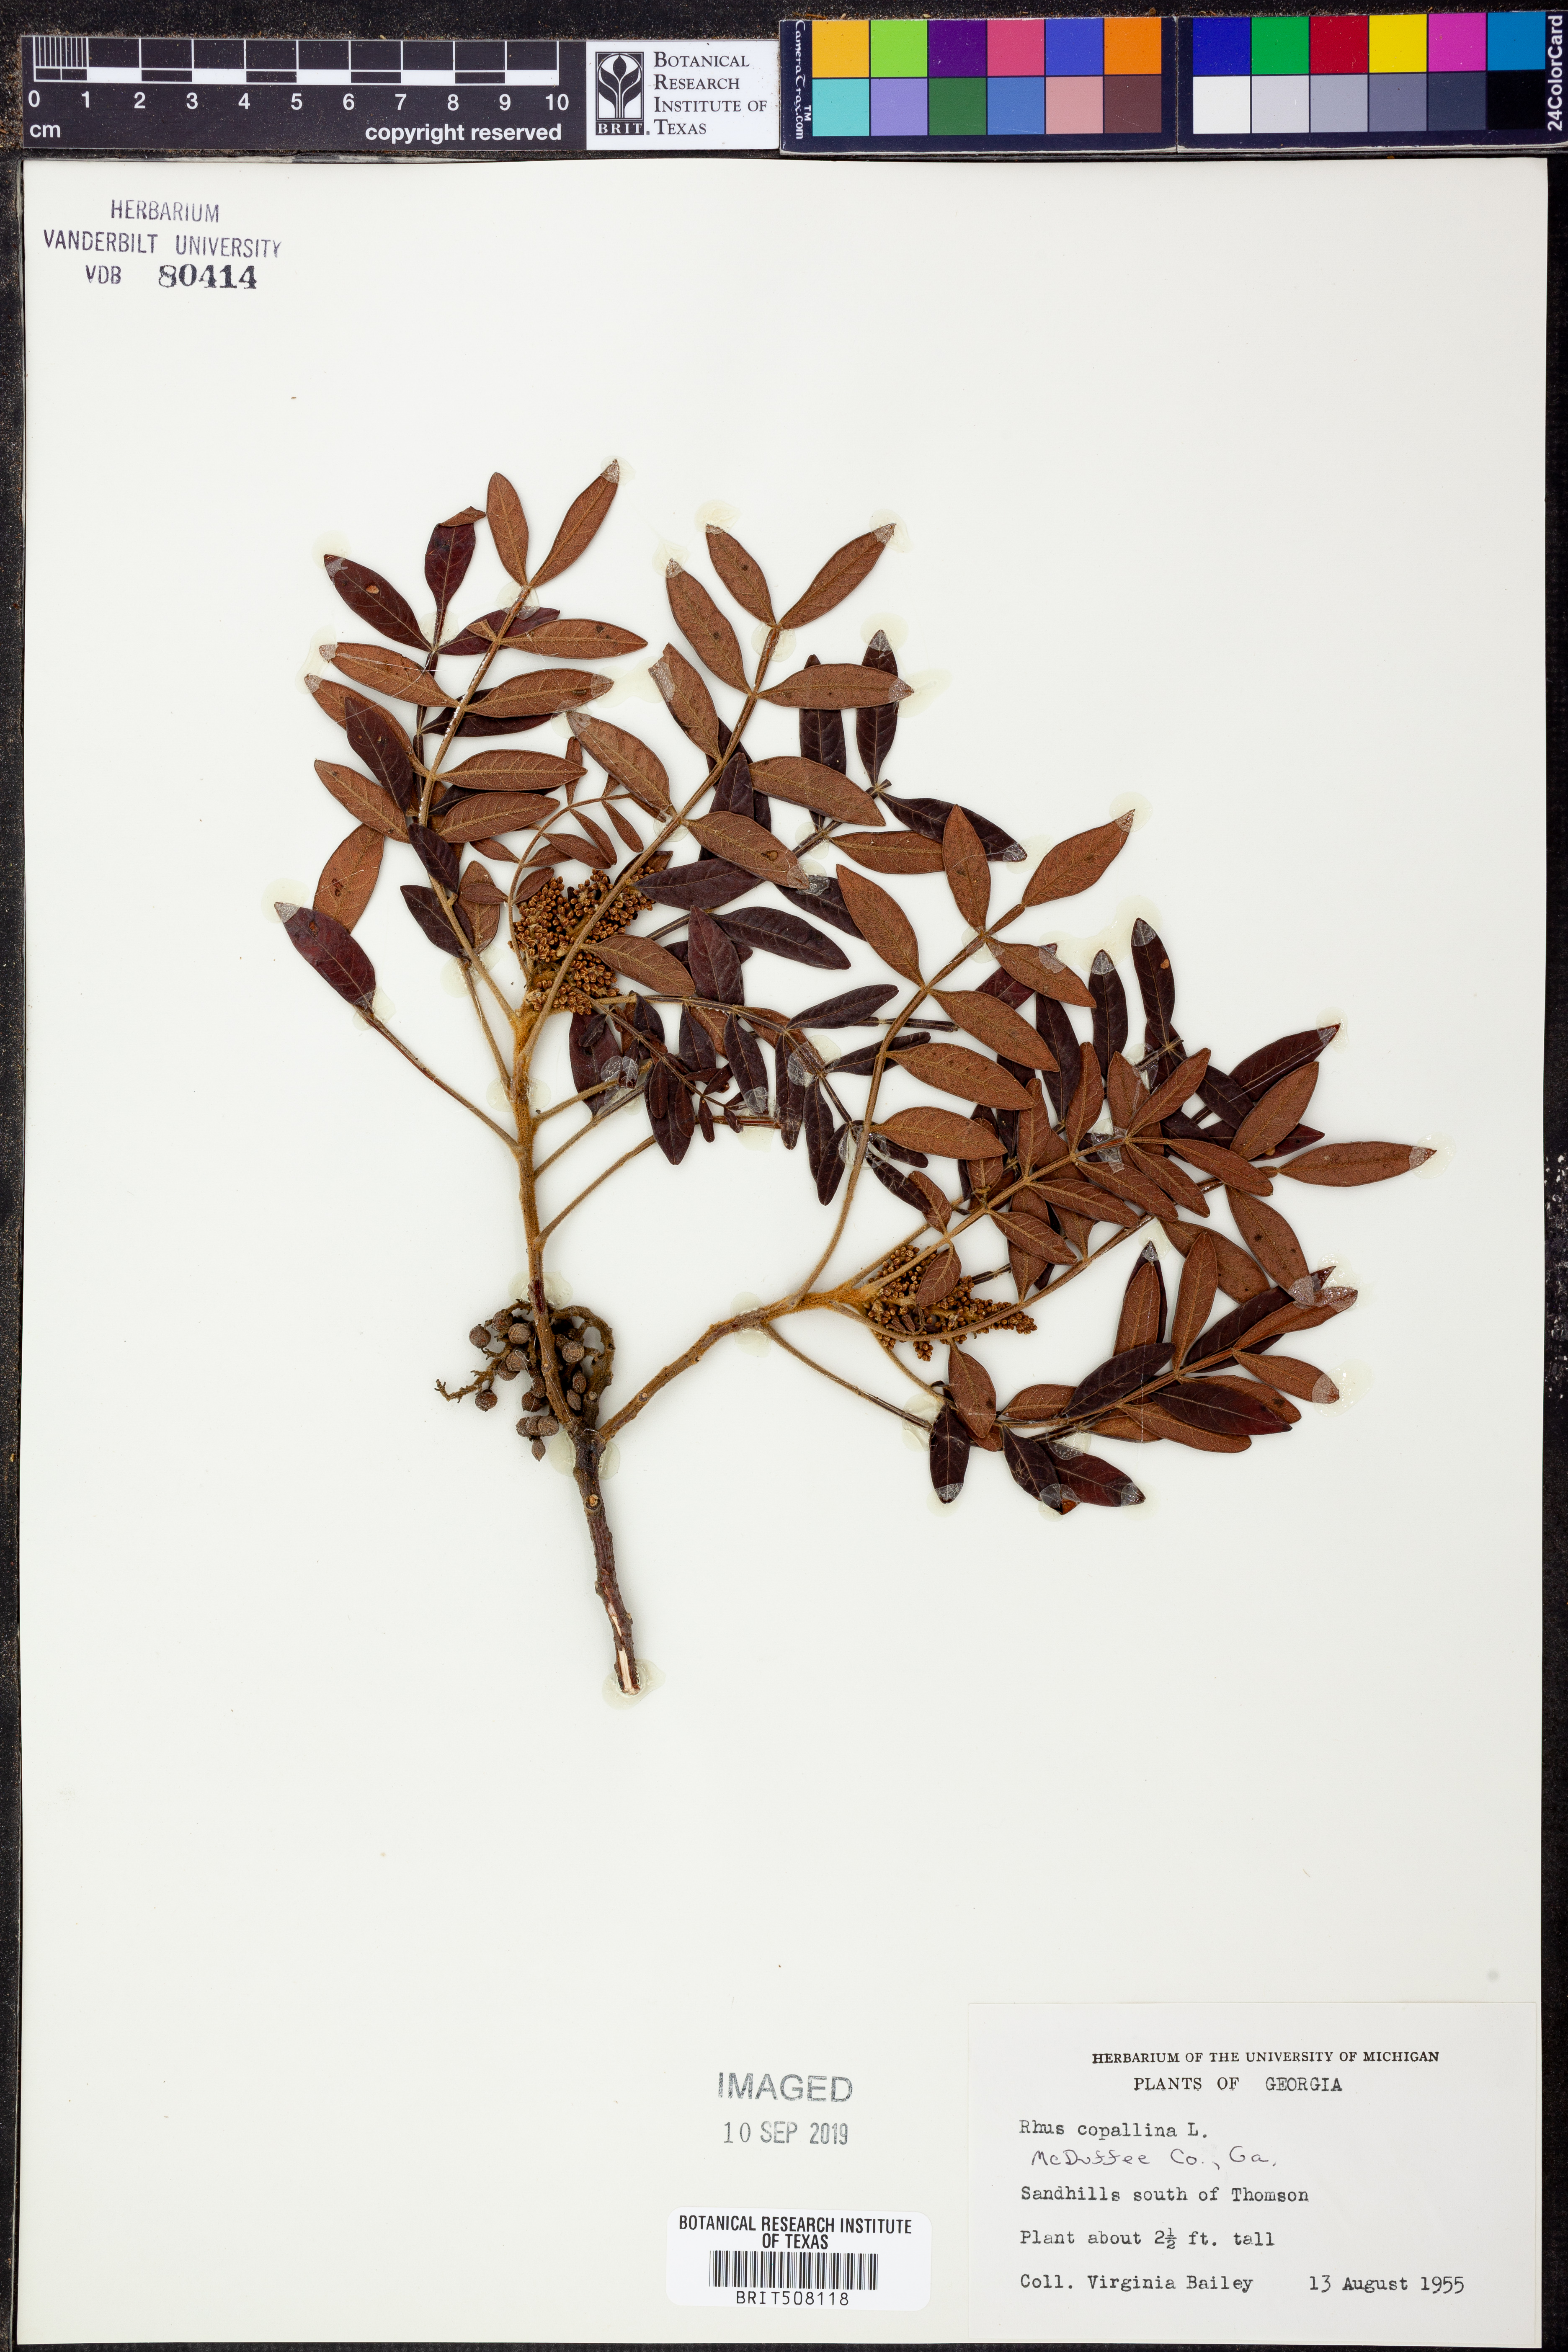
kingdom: Plantae
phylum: Tracheophyta
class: Magnoliopsida
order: Sapindales
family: Anacardiaceae
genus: Rhus
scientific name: Rhus copallina
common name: Shining sumac
